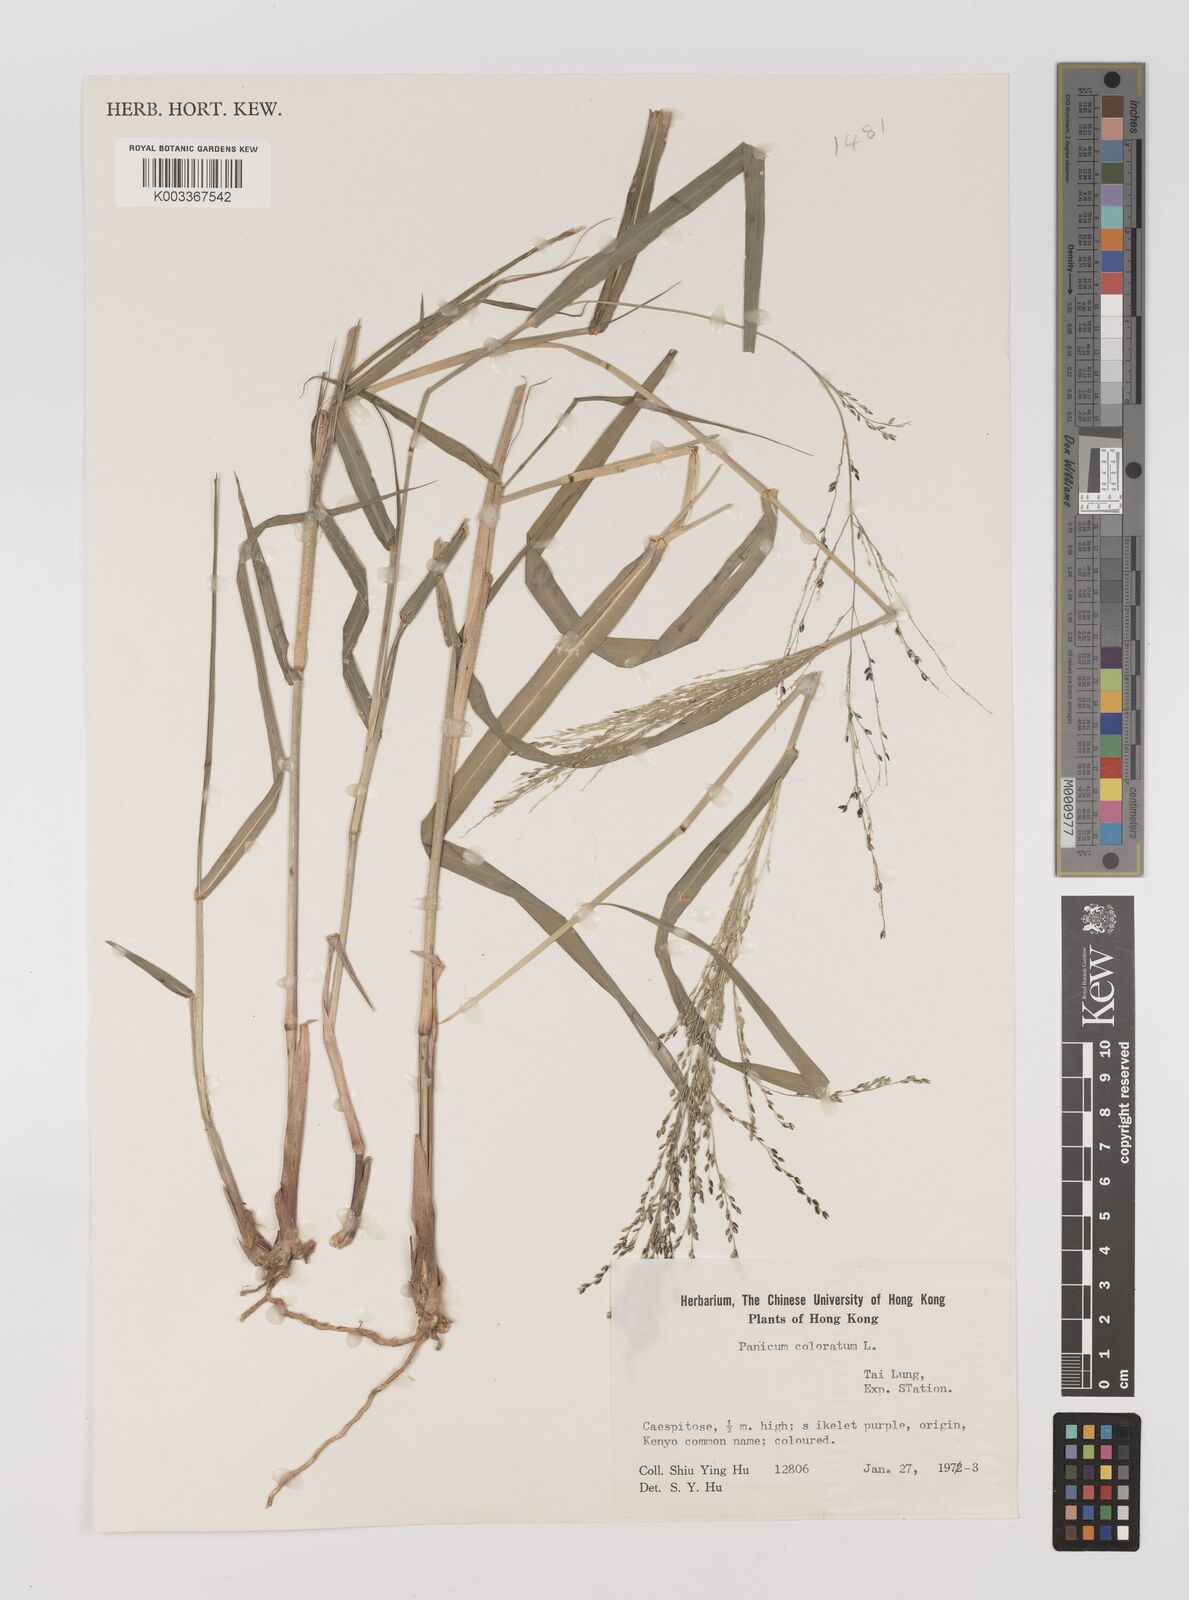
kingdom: Plantae
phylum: Tracheophyta
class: Liliopsida
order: Poales
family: Poaceae
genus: Panicum
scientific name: Panicum coloratum
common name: Kleingrass
